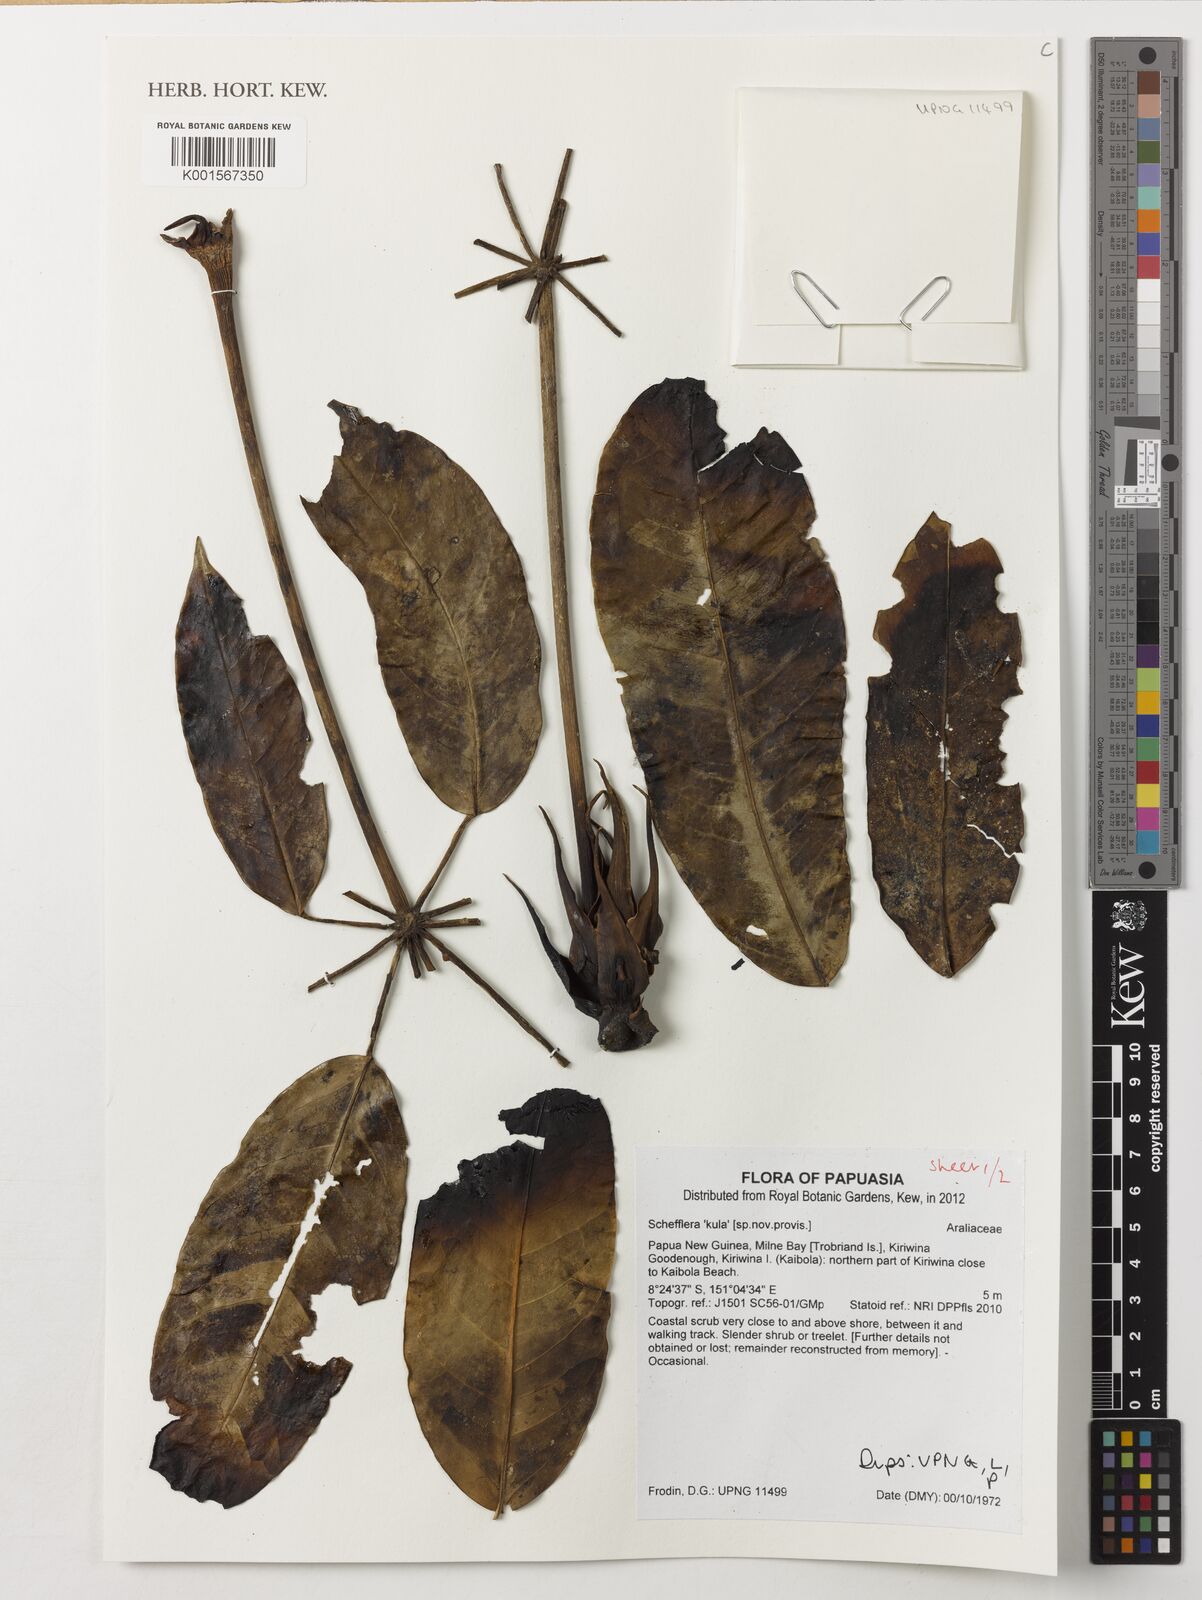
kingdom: Plantae
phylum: Tracheophyta
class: Magnoliopsida
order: Apiales
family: Araliaceae
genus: Schefflera
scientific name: Schefflera
